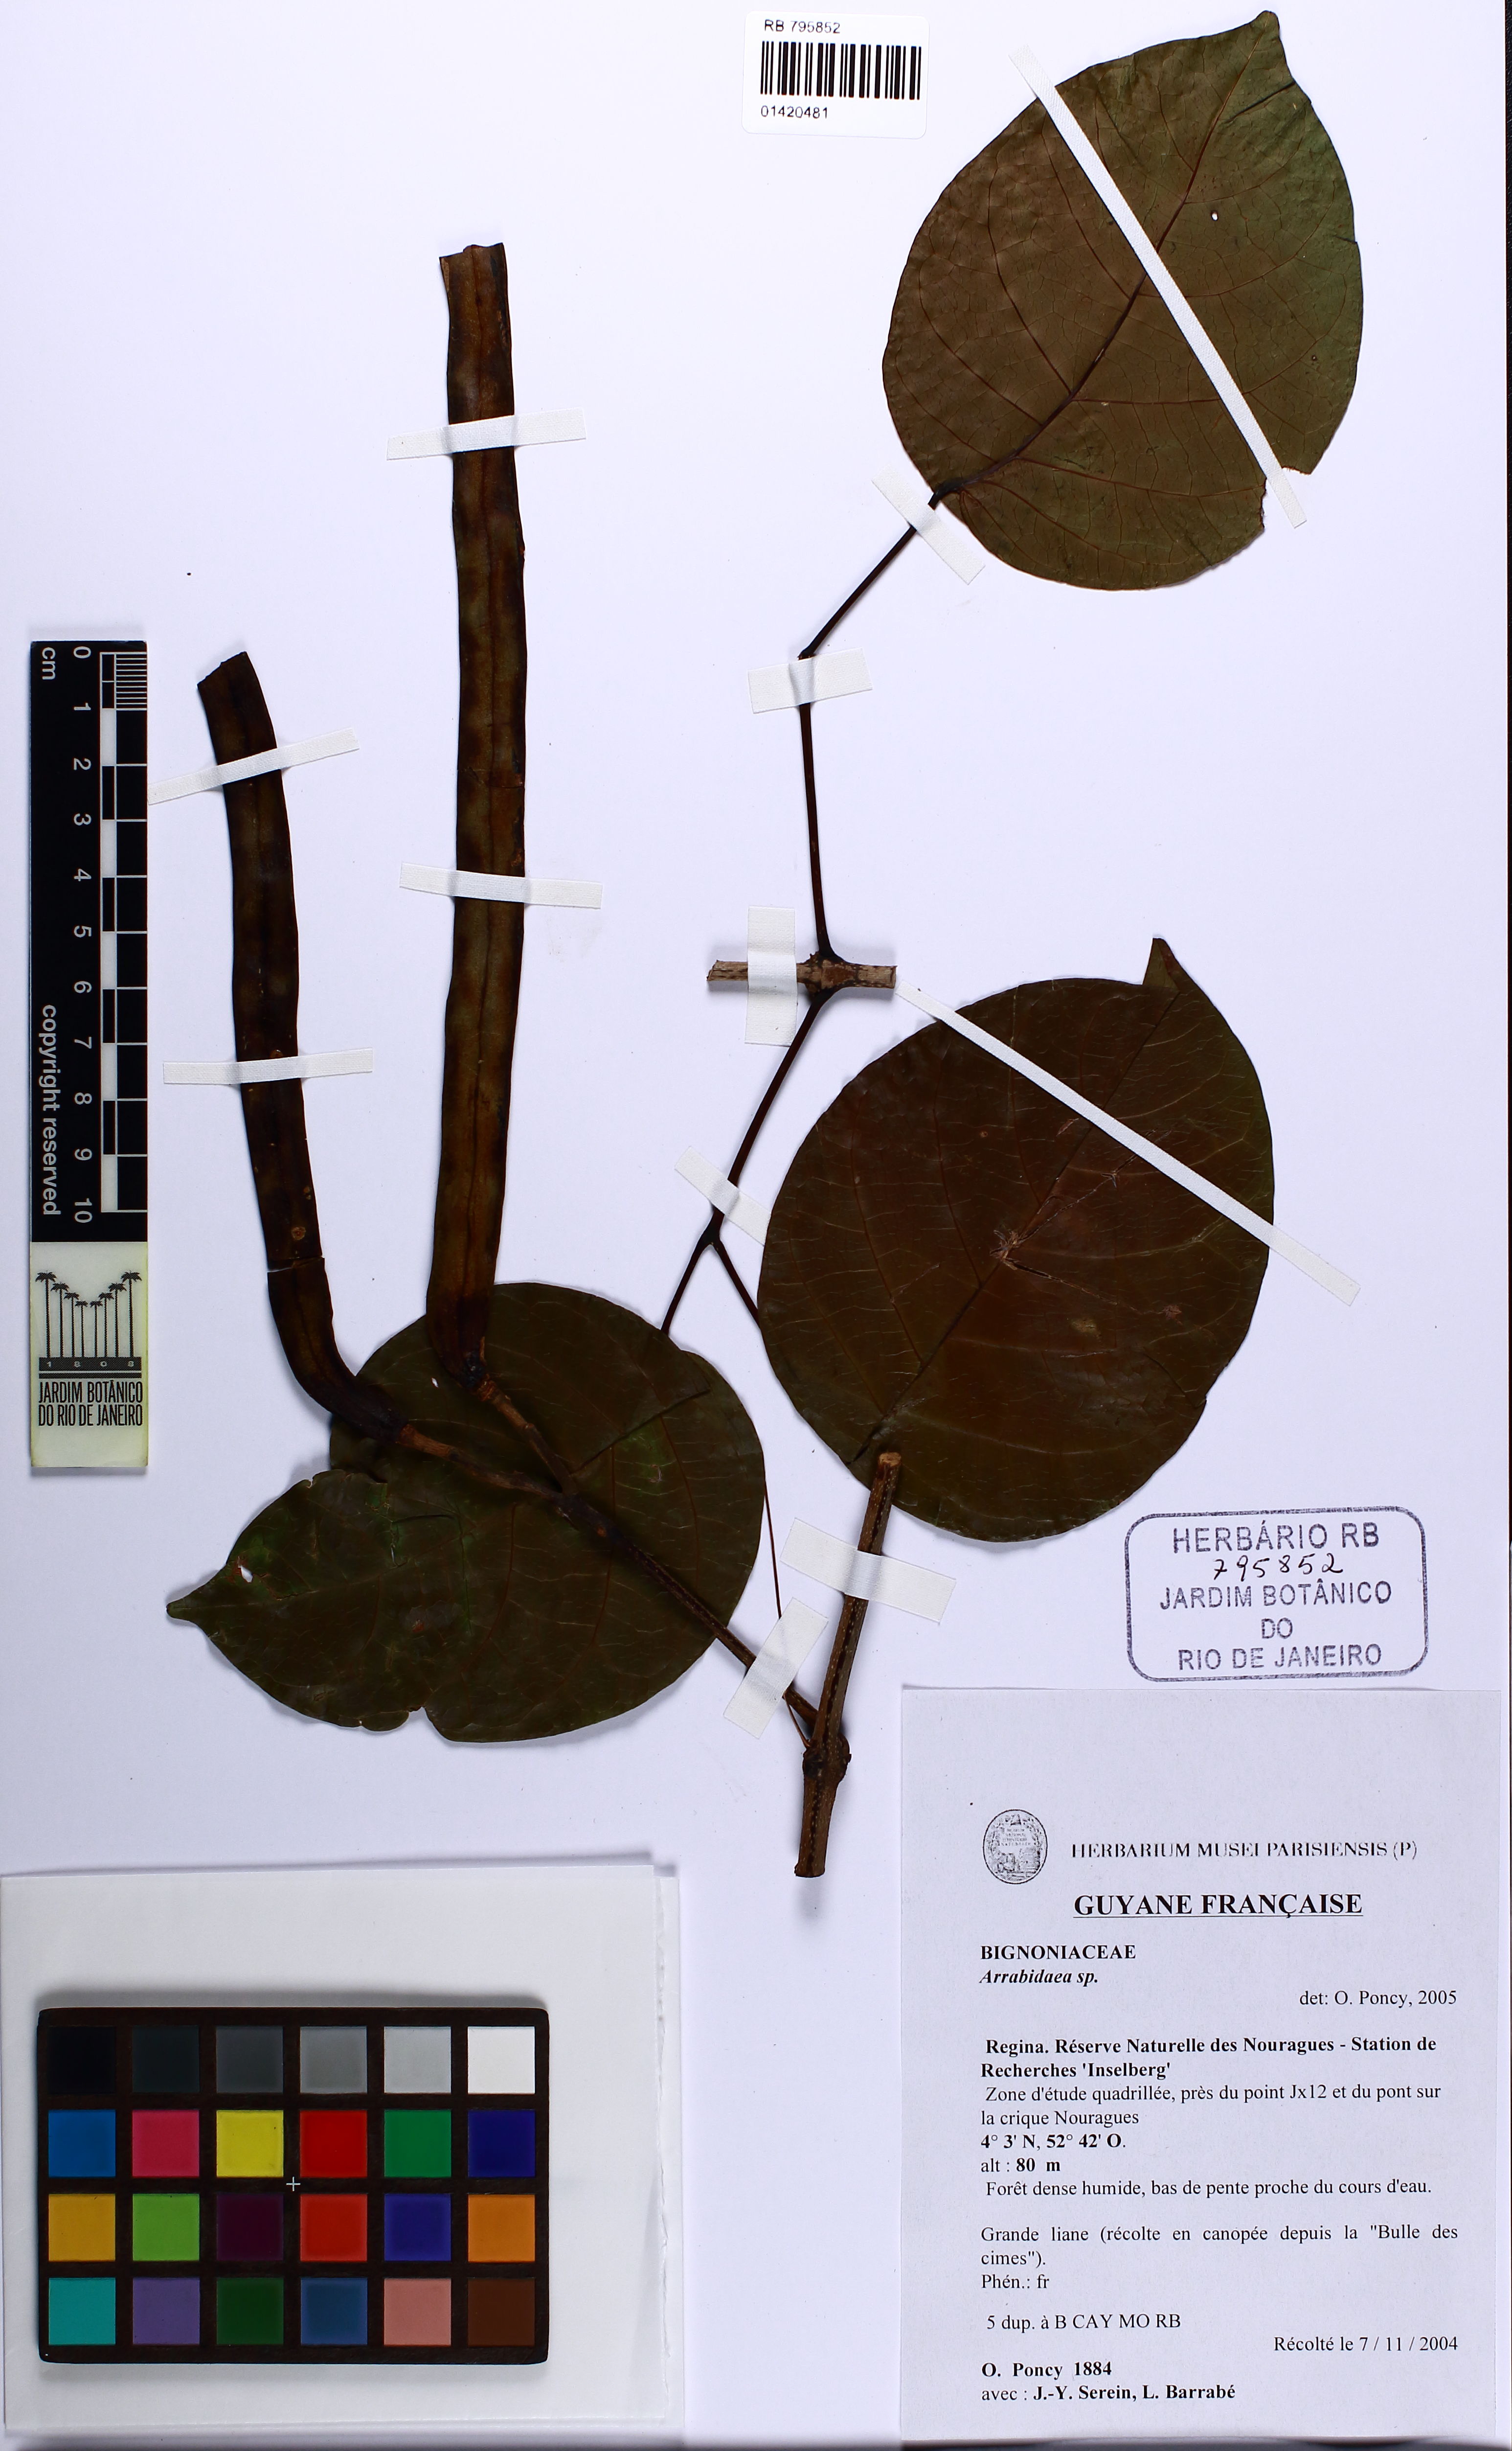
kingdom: Plantae
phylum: Tracheophyta
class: Magnoliopsida
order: Lamiales
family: Bignoniaceae
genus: Fridericia
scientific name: Fridericia chica
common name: Cricketvine
